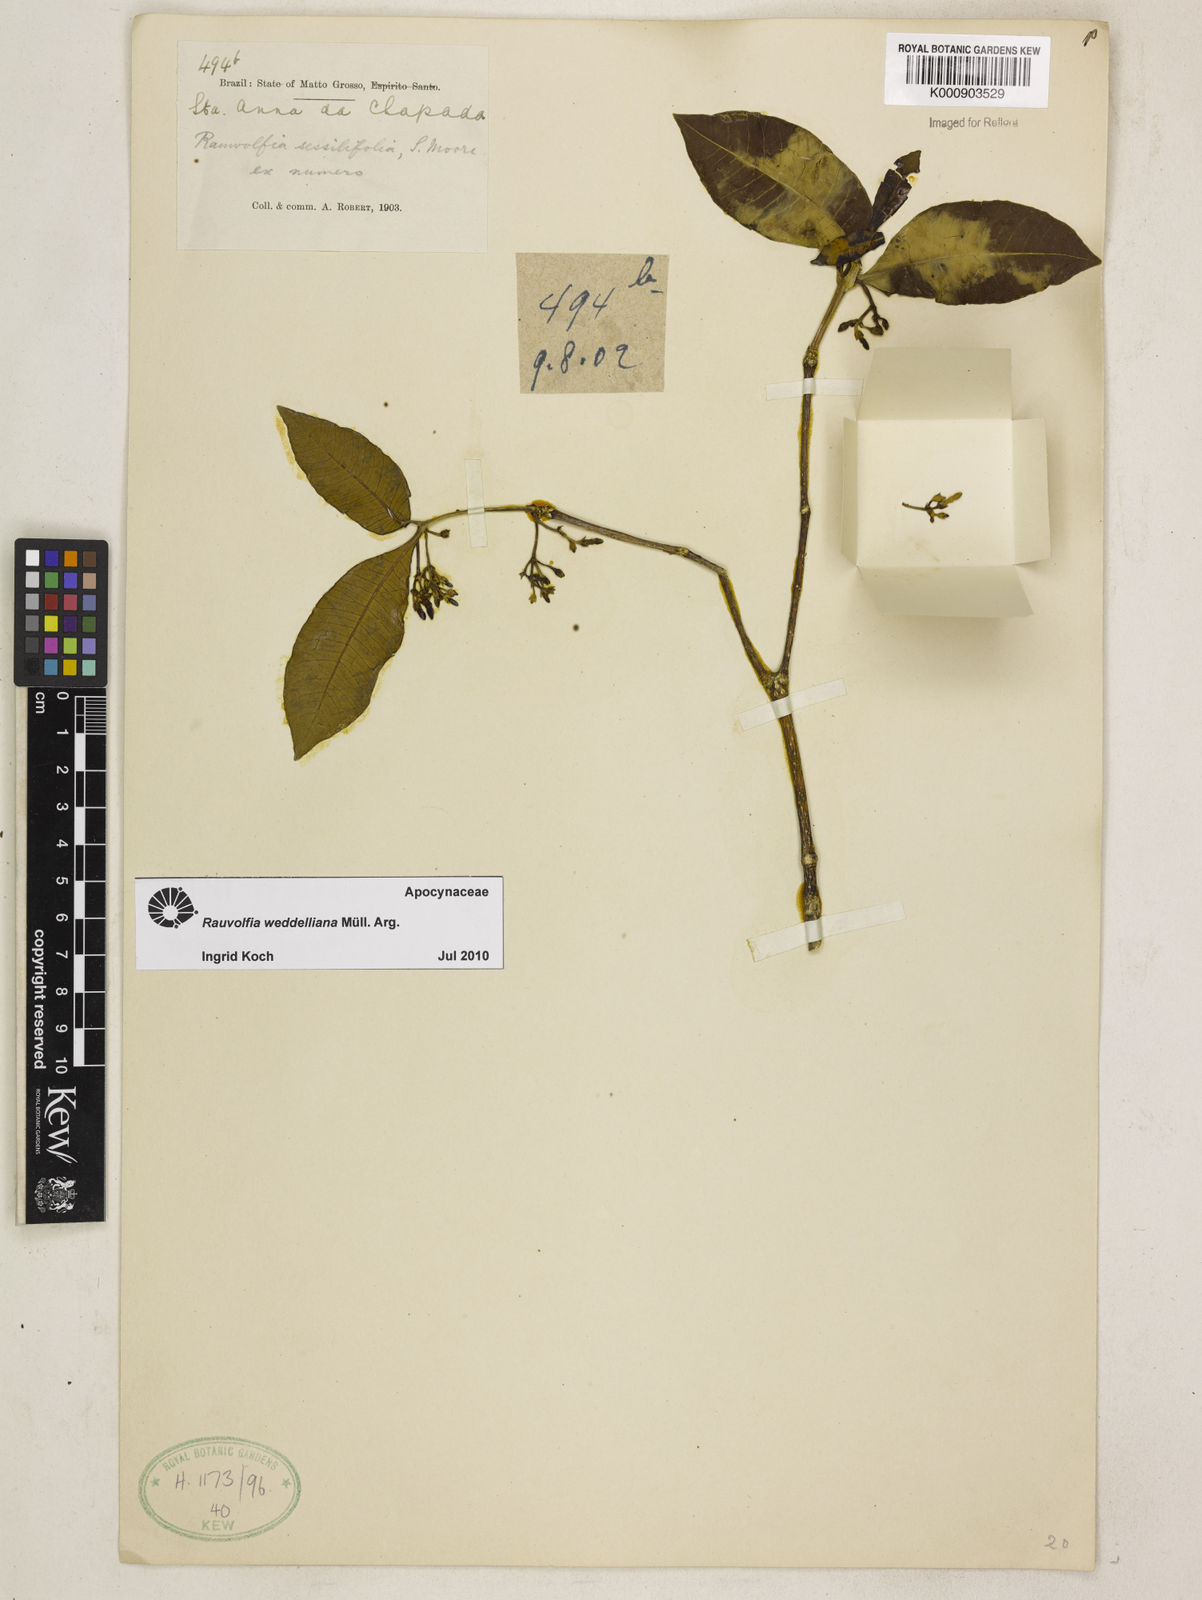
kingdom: Plantae
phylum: Tracheophyta
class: Magnoliopsida
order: Gentianales
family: Apocynaceae
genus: Rauvolfia
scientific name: Rauvolfia
